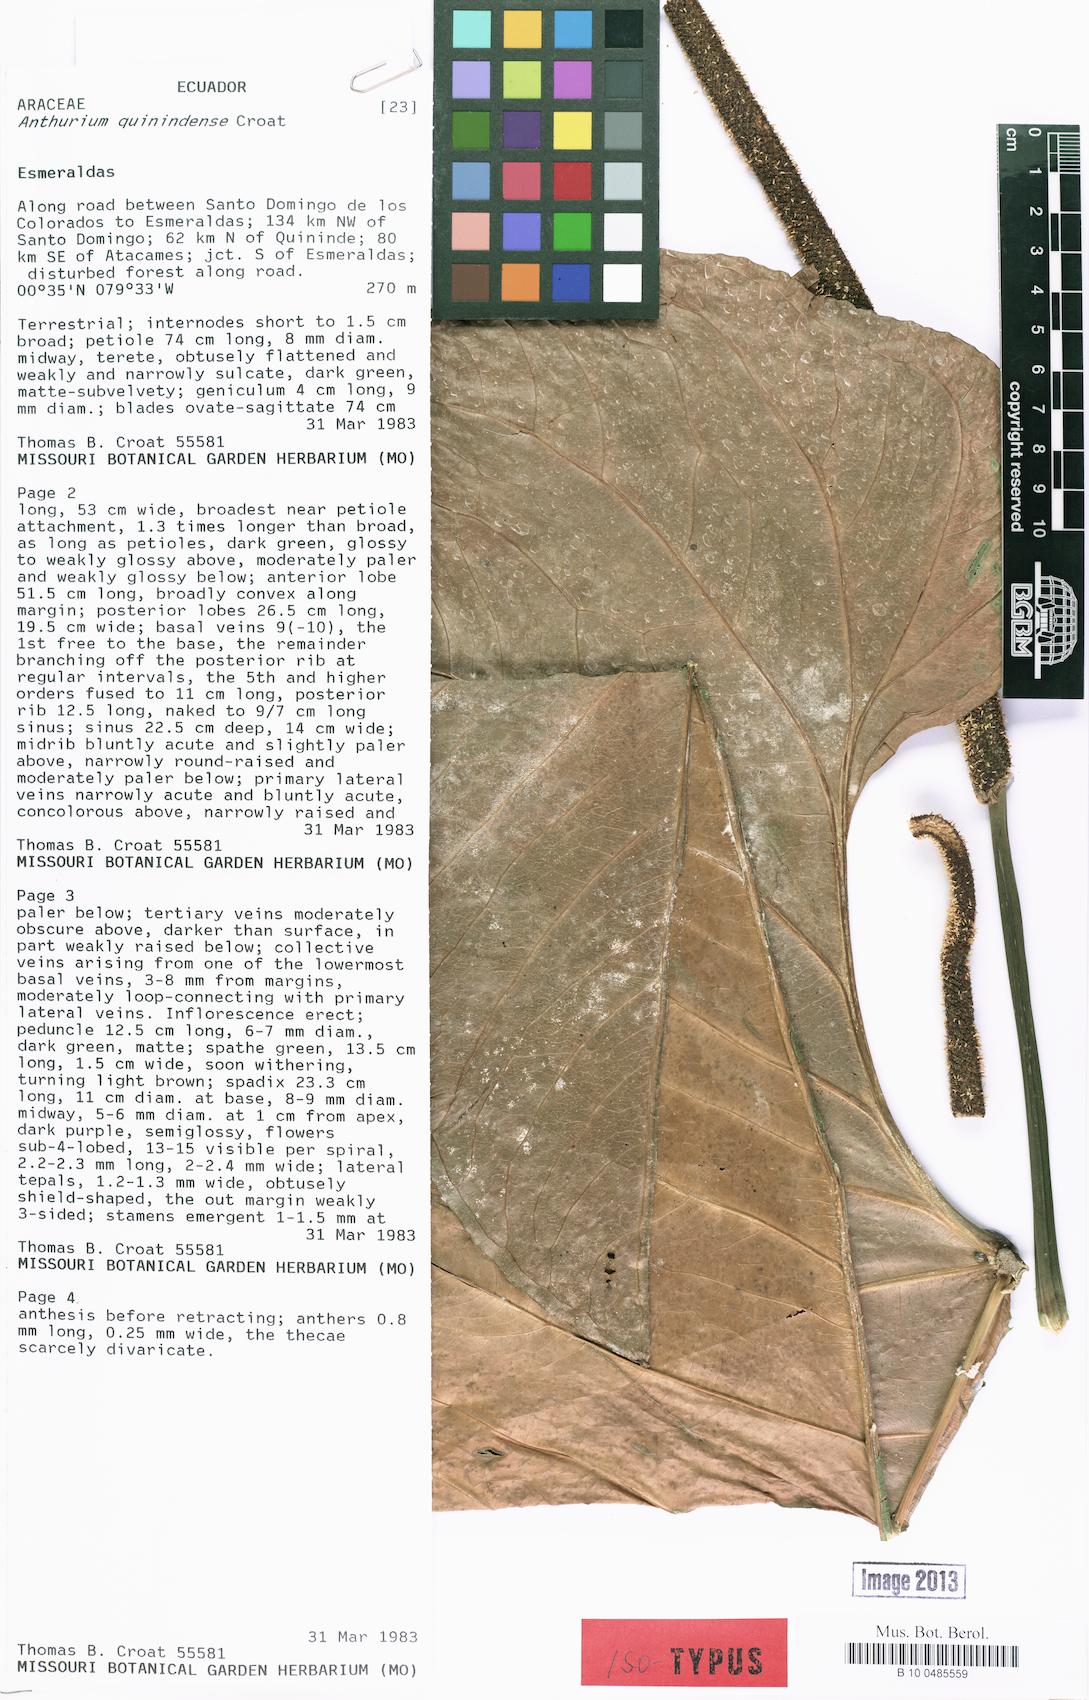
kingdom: Plantae
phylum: Tracheophyta
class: Liliopsida
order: Alismatales
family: Araceae
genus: Anthurium
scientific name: Anthurium quinindense
